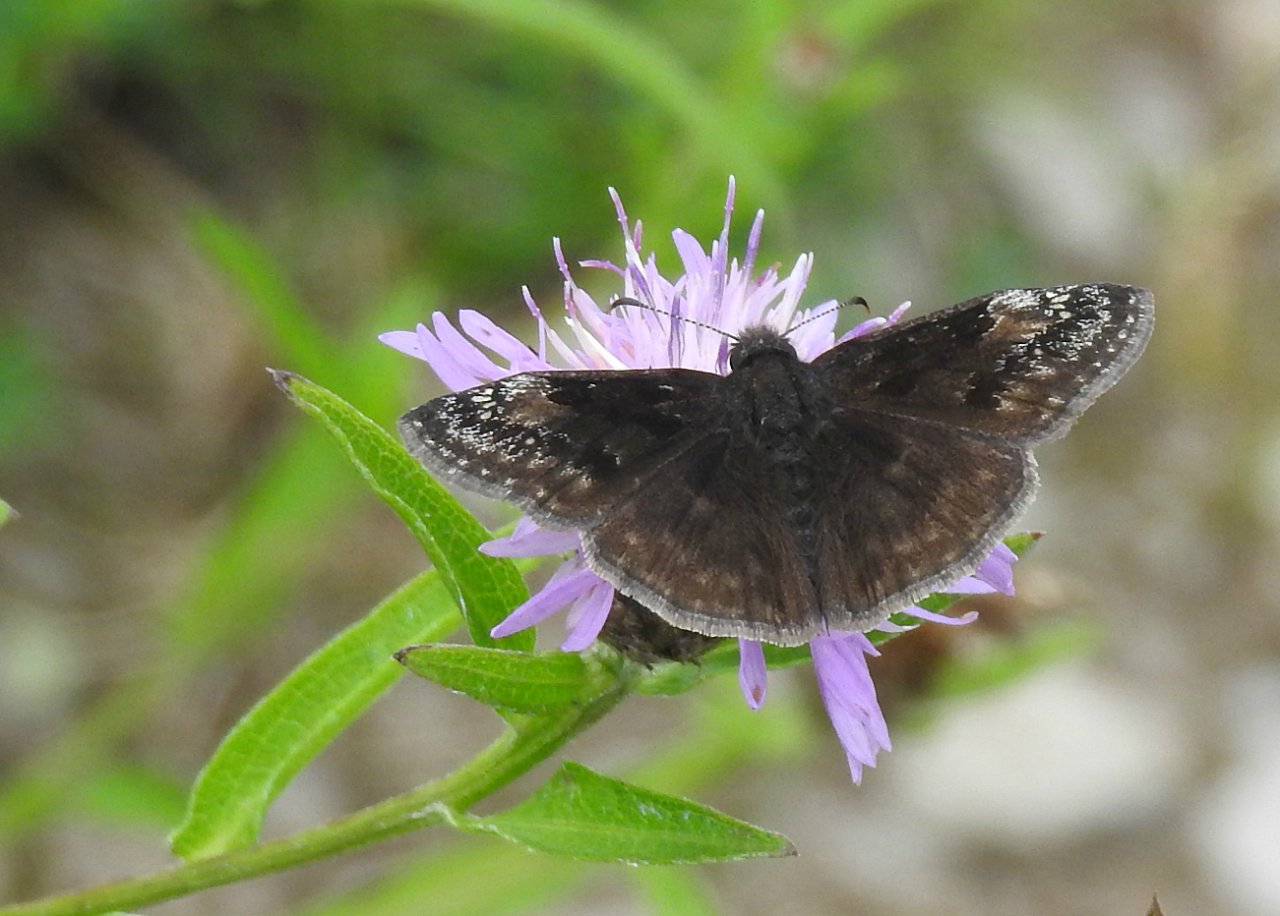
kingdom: Animalia
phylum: Arthropoda
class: Insecta
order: Lepidoptera
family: Hesperiidae
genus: Gesta
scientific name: Gesta
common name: Wild Indigo Duskywing
